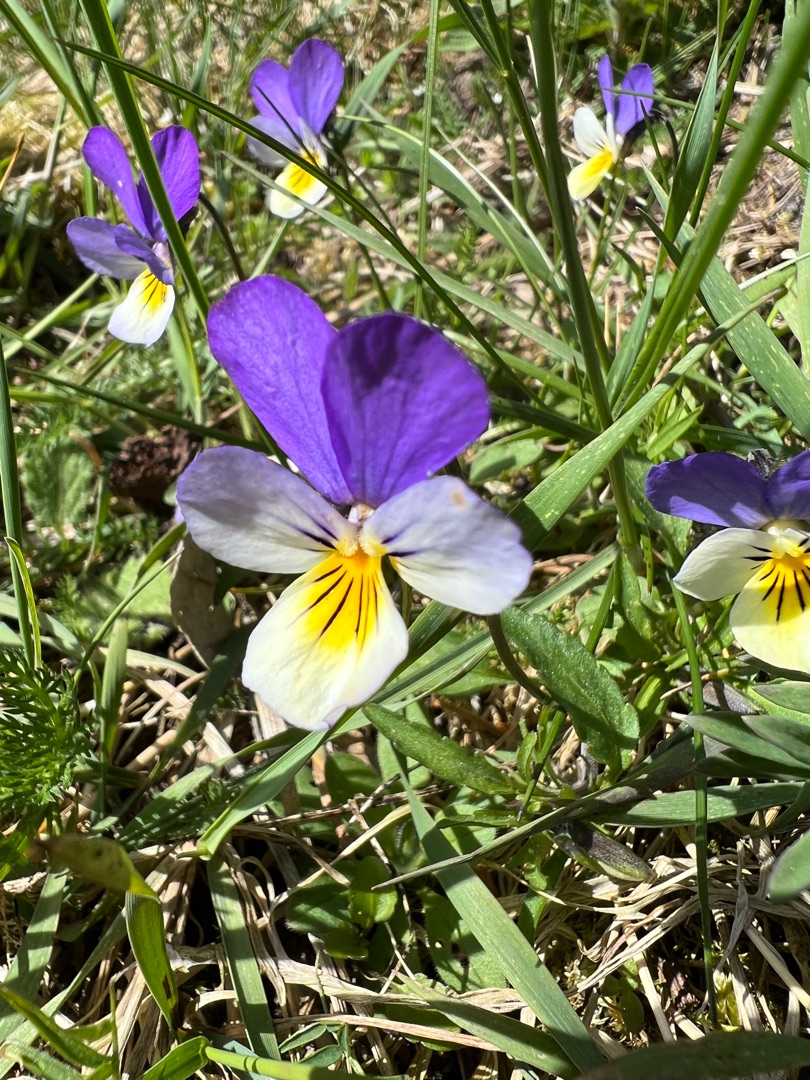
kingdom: Plantae
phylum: Tracheophyta
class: Magnoliopsida
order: Malpighiales
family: Violaceae
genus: Viola
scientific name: Viola tricolor
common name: Stedmoderblomst
